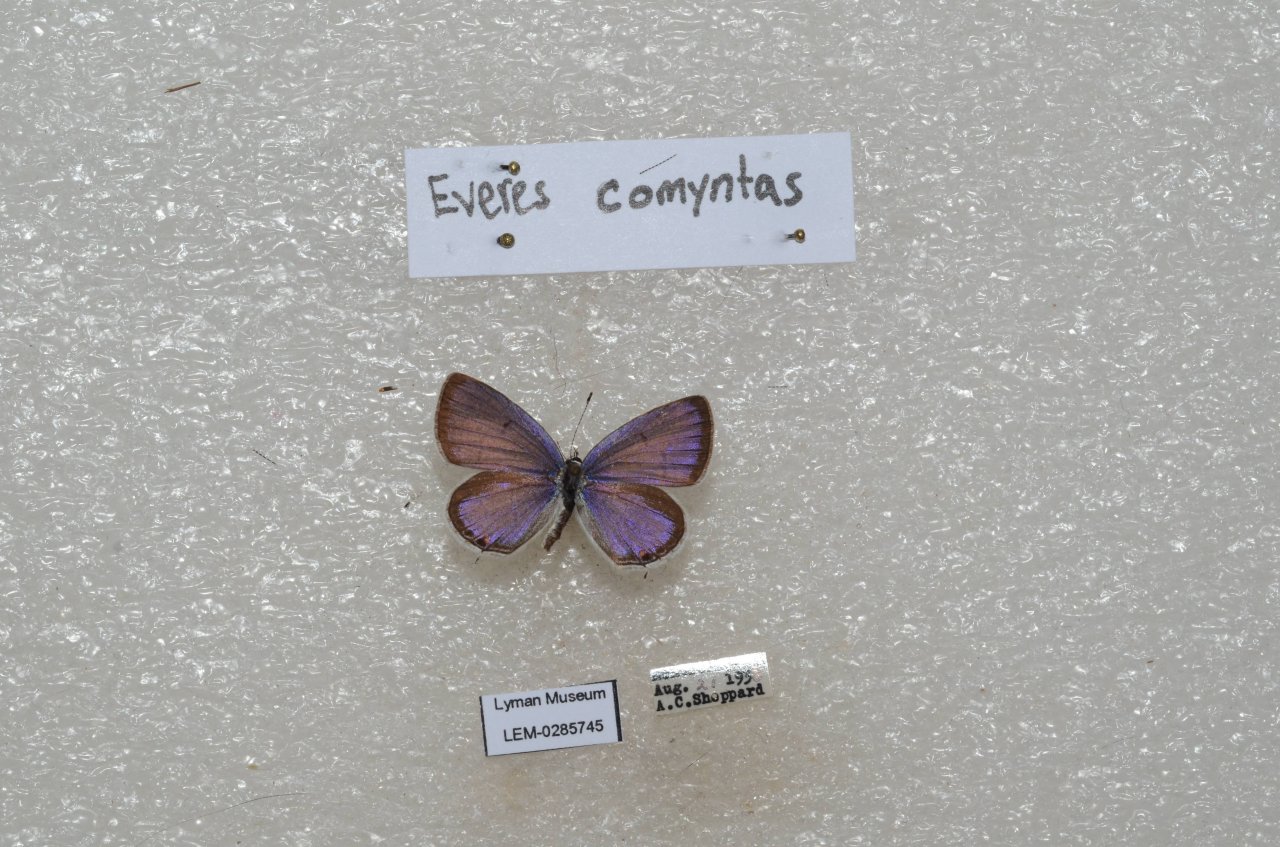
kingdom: Animalia
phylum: Arthropoda
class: Insecta
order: Lepidoptera
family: Lycaenidae
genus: Elkalyce
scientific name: Elkalyce comyntas
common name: Eastern Tailed-Blue
